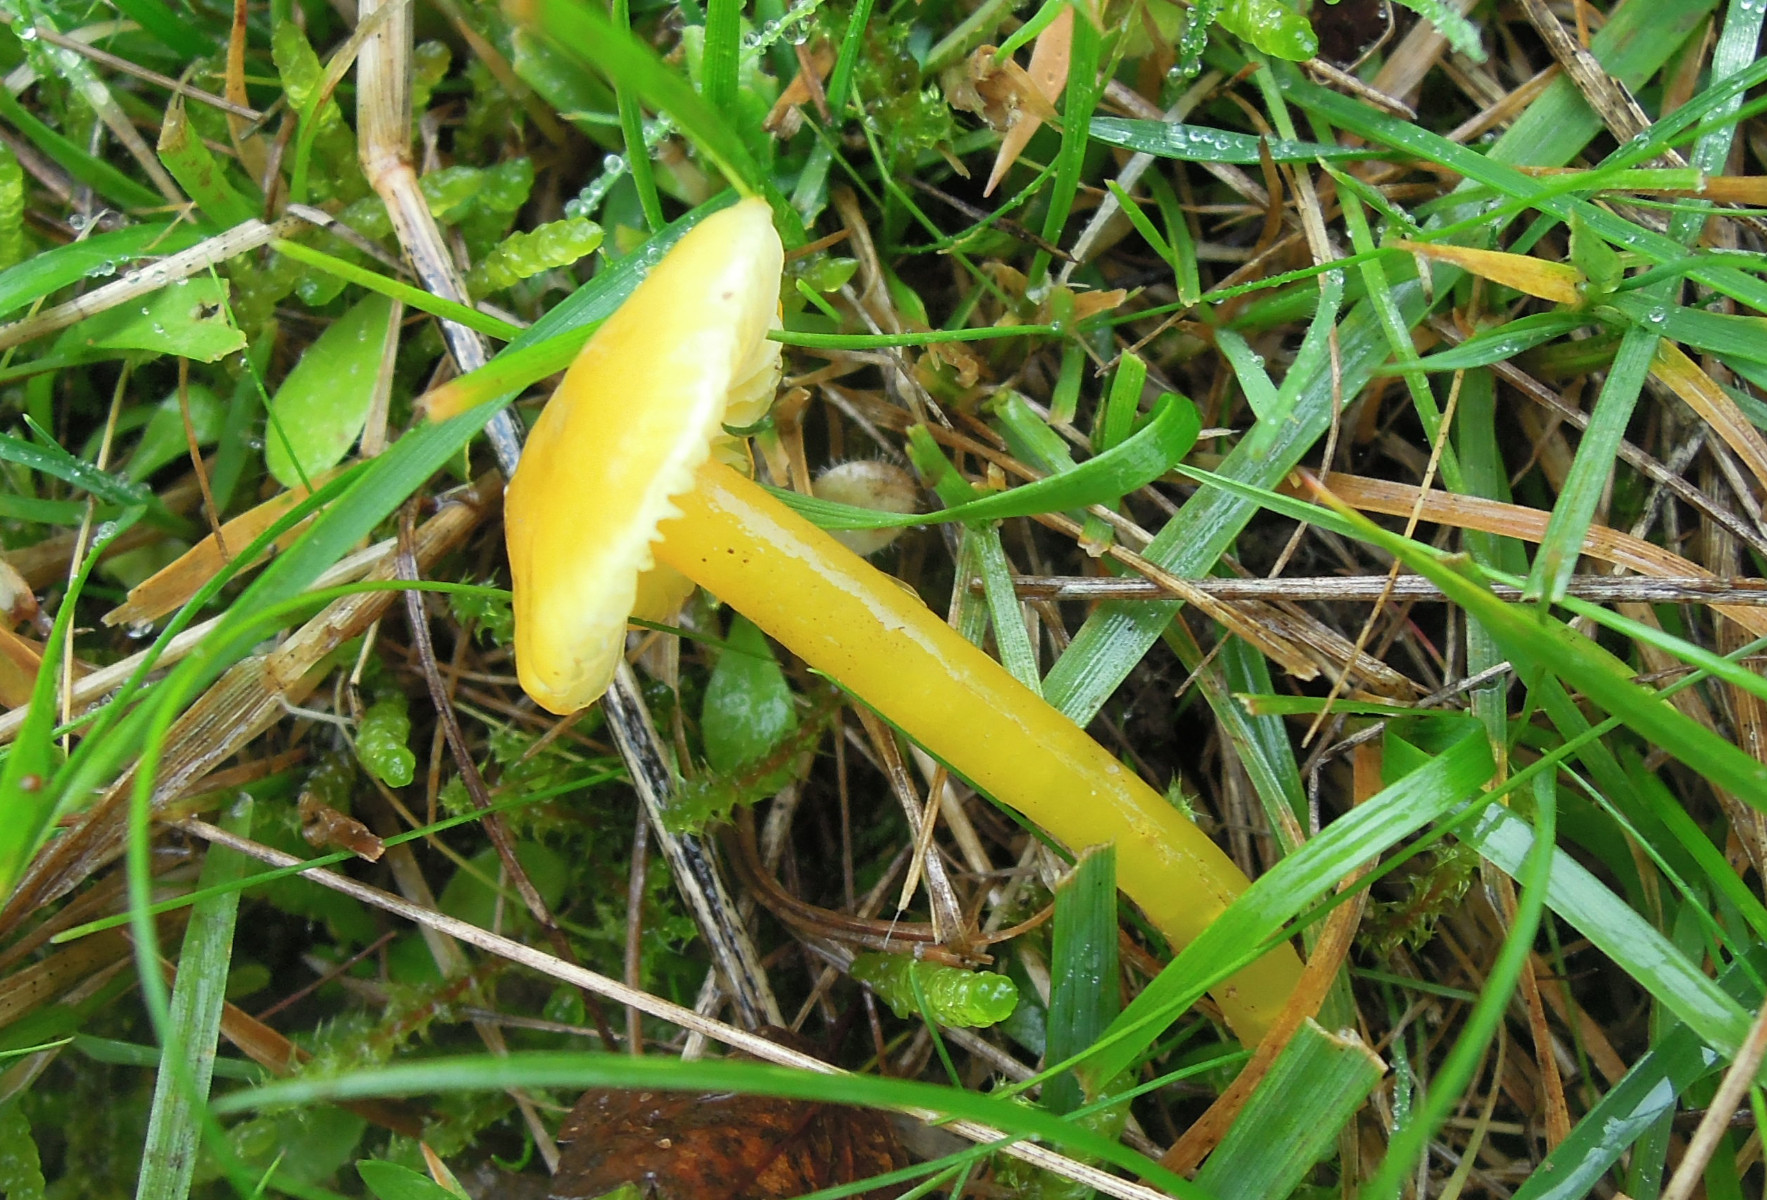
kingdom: Fungi
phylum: Basidiomycota
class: Agaricomycetes
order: Agaricales
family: Hygrophoraceae
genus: Hygrocybe
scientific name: Hygrocybe glutinipes
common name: slimstokket vokshat
